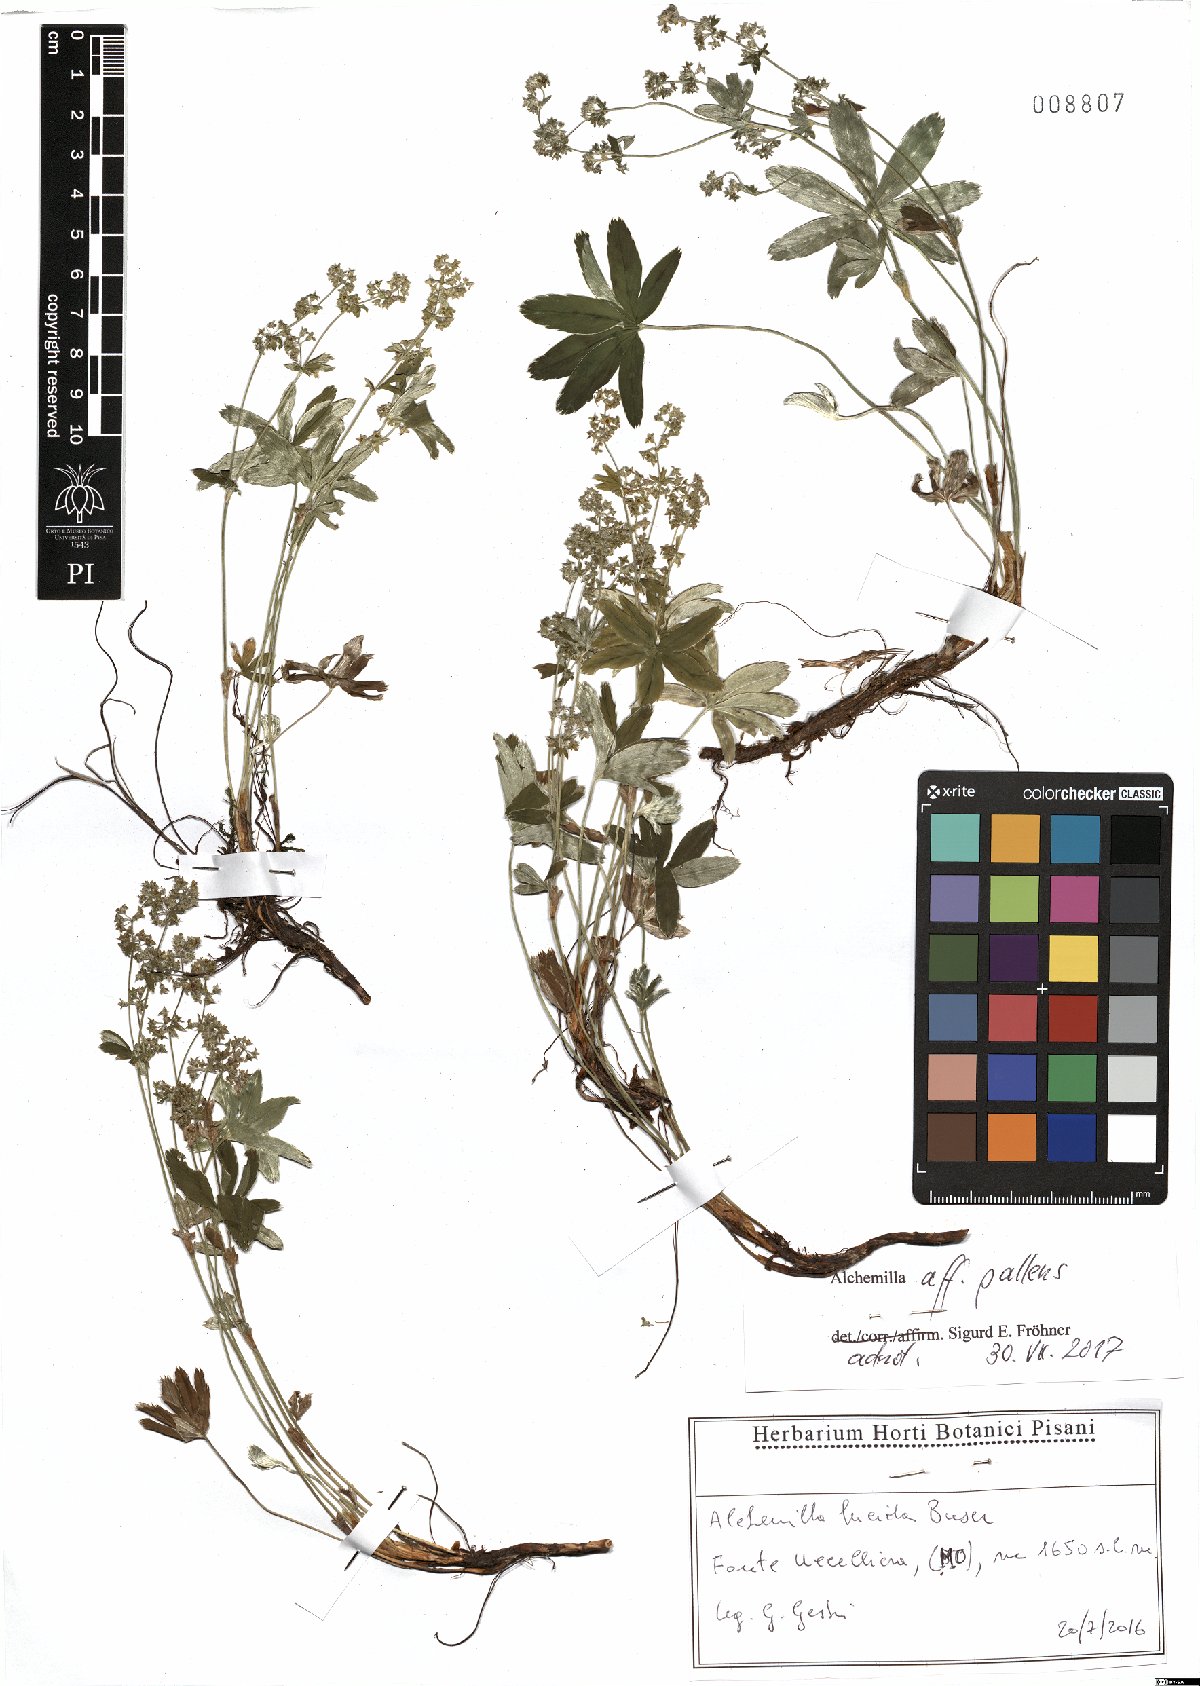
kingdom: Plantae
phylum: Tracheophyta
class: Magnoliopsida
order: Rosales
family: Rosaceae
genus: Alchemilla
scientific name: Alchemilla pallens
